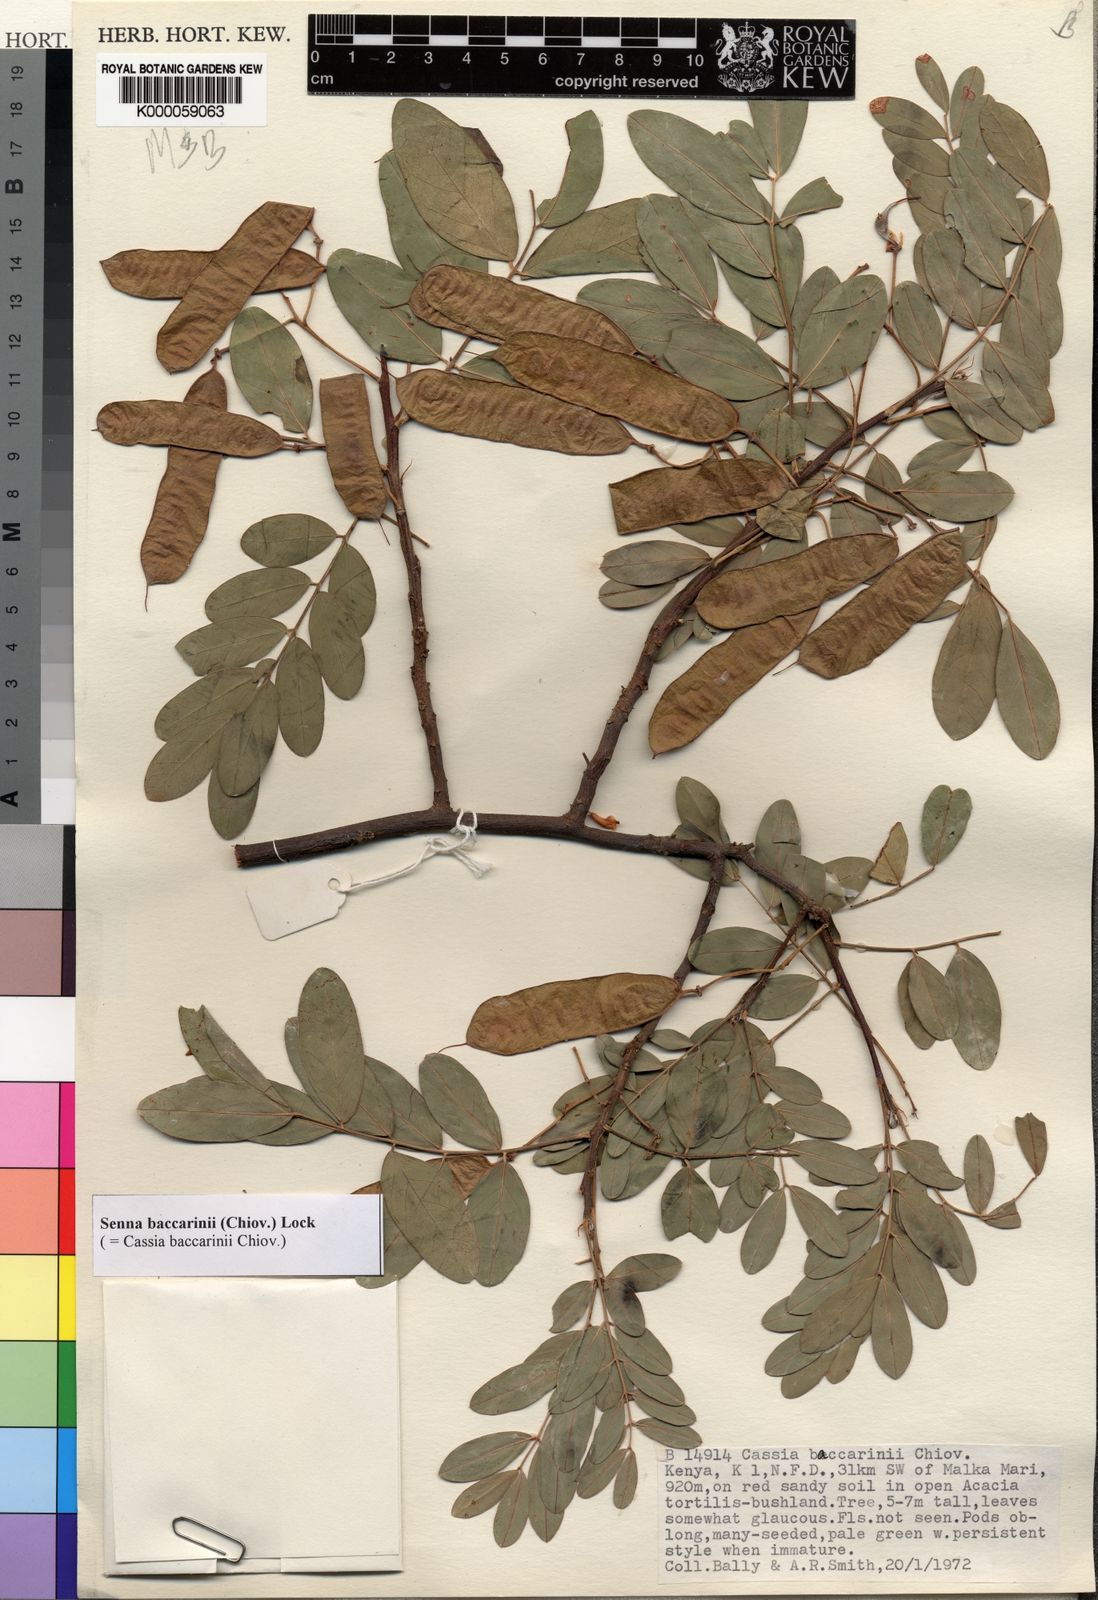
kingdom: Plantae
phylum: Tracheophyta
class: Magnoliopsida
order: Fabales
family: Fabaceae
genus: Senna
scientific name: Senna baccarinii
